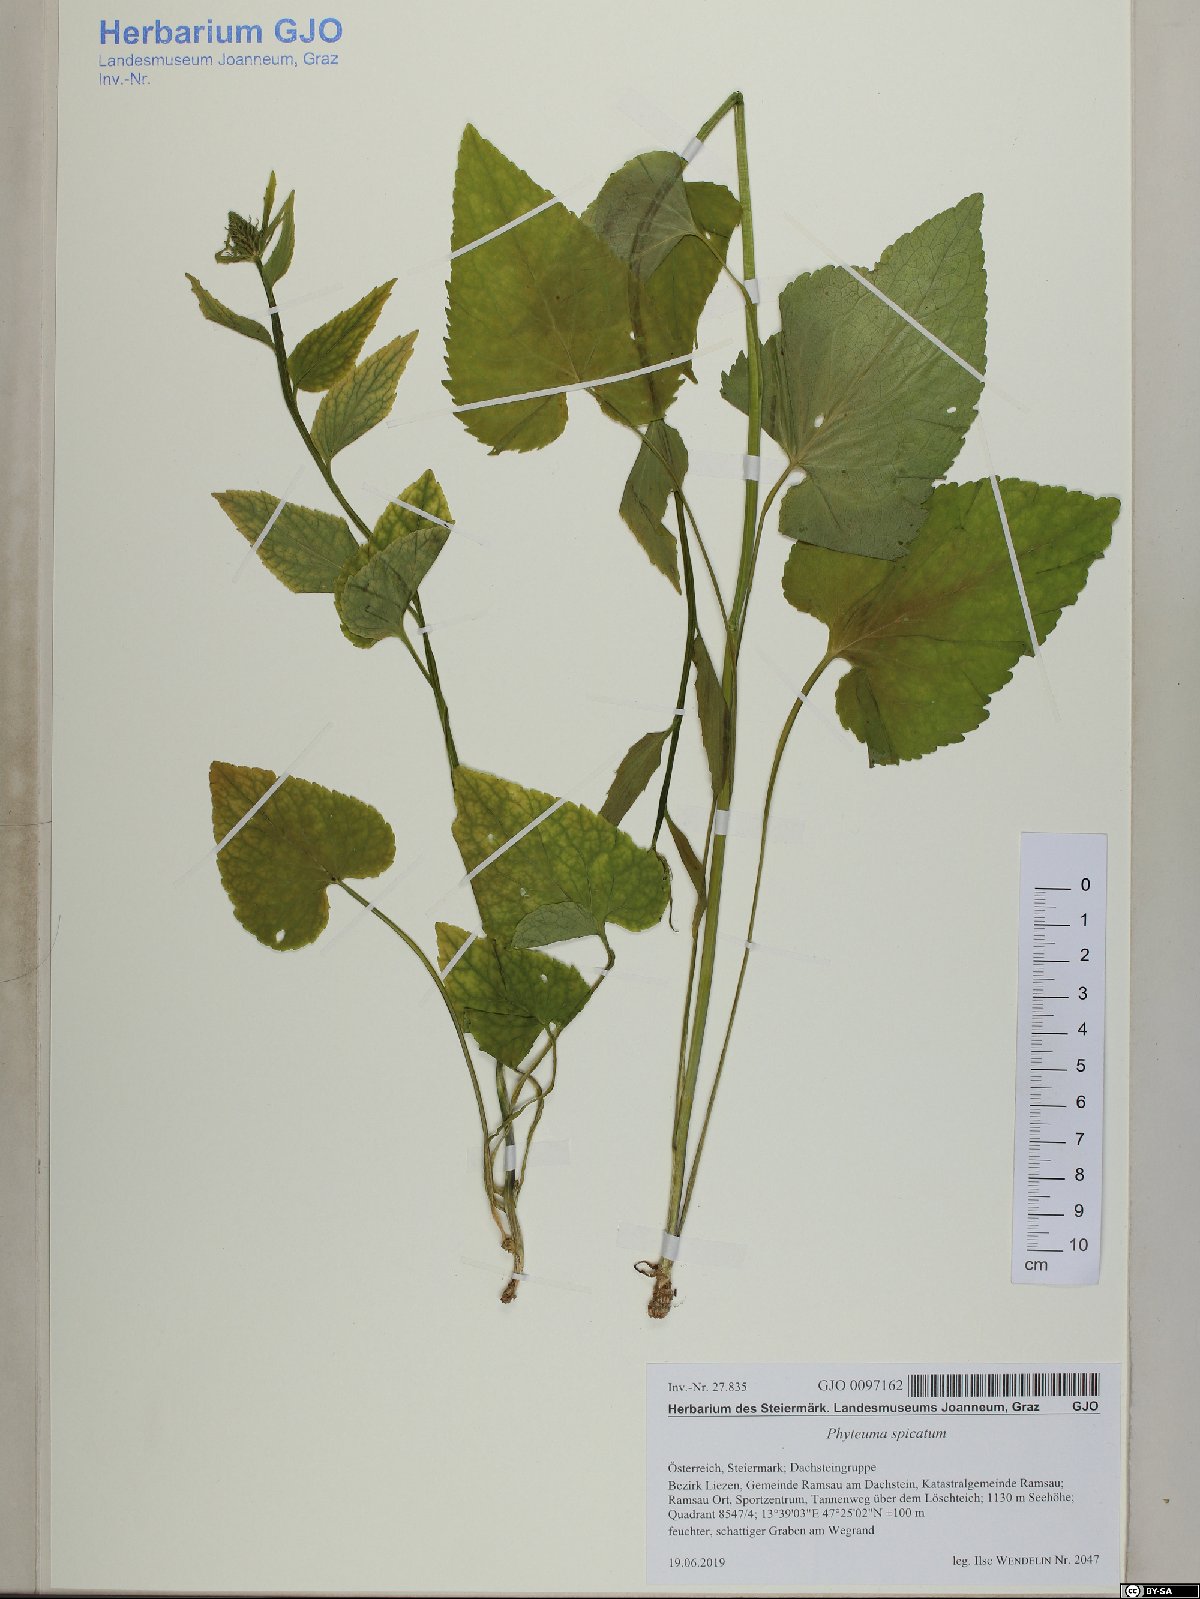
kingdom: Plantae
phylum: Tracheophyta
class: Magnoliopsida
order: Asterales
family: Campanulaceae
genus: Phyteuma
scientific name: Phyteuma spicatum
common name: Spiked rampion
